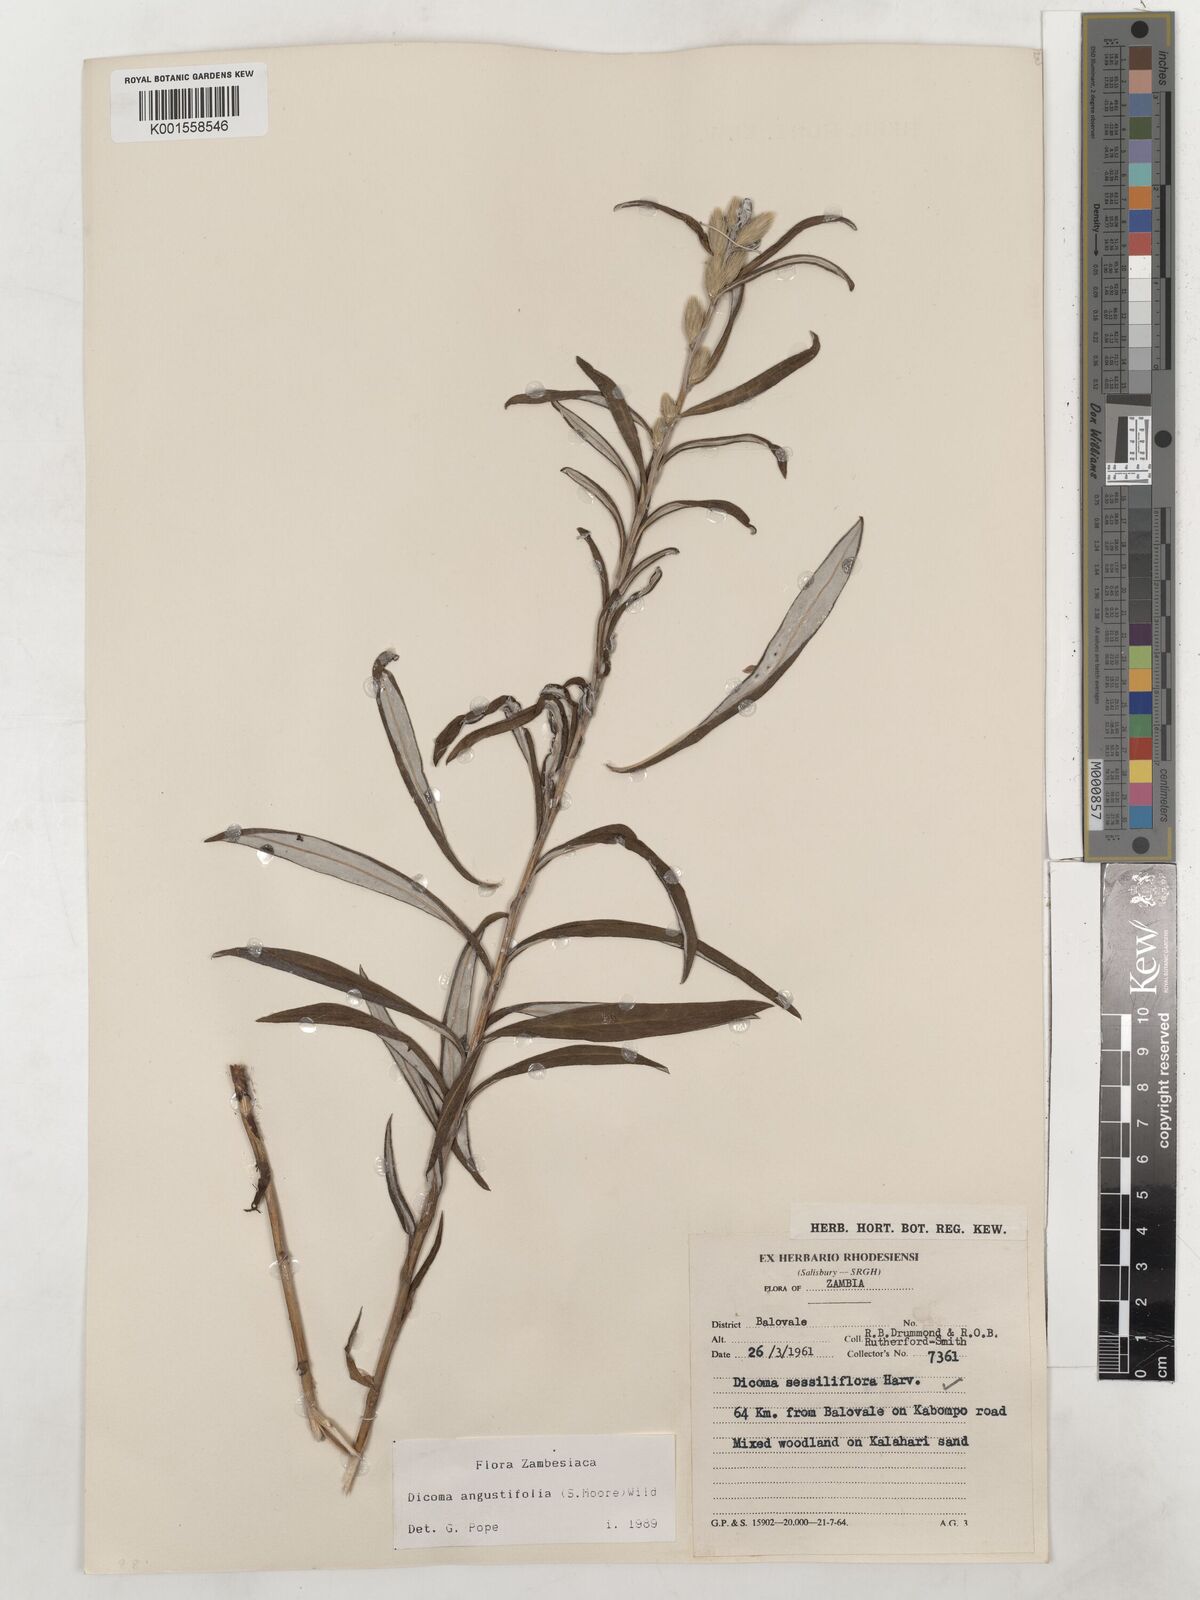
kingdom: Plantae
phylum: Tracheophyta
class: Magnoliopsida
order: Asterales
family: Asteraceae
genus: Macledium
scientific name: Macledium poggei
